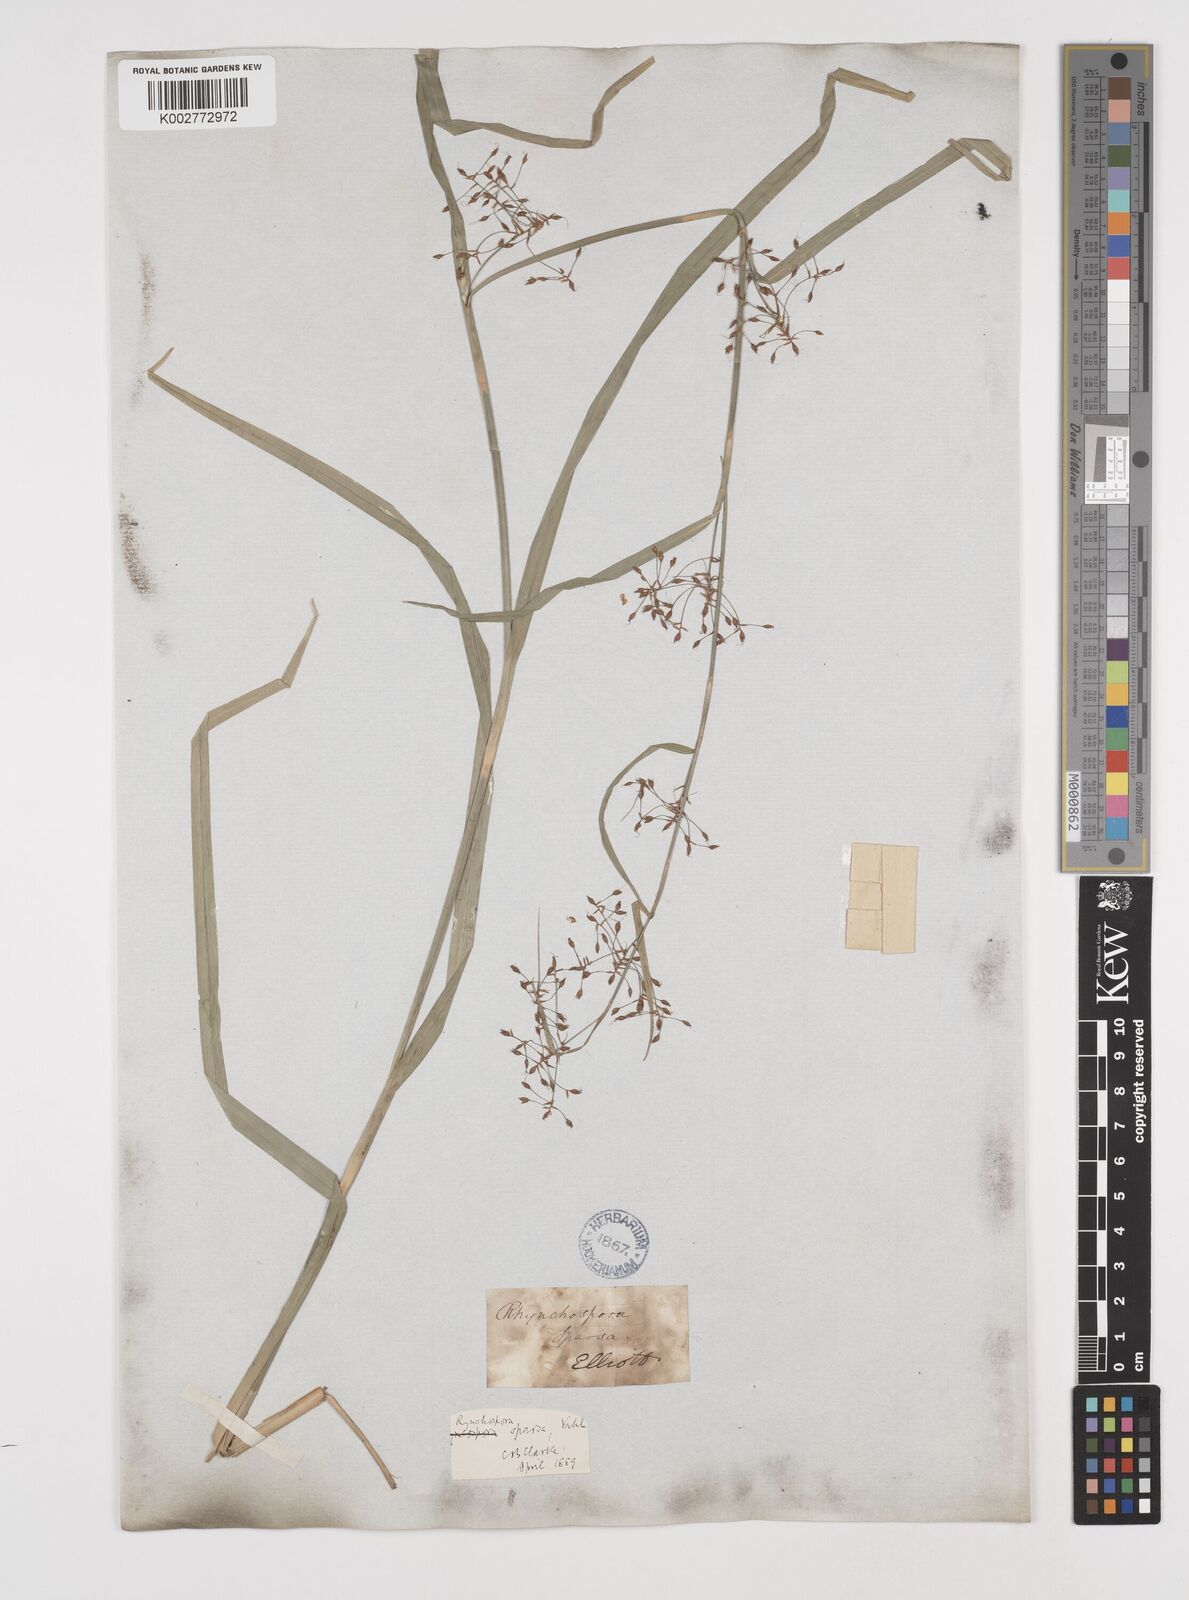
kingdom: Plantae
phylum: Tracheophyta
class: Liliopsida
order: Poales
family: Cyperaceae
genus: Rhynchospora
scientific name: Rhynchospora miliacea
